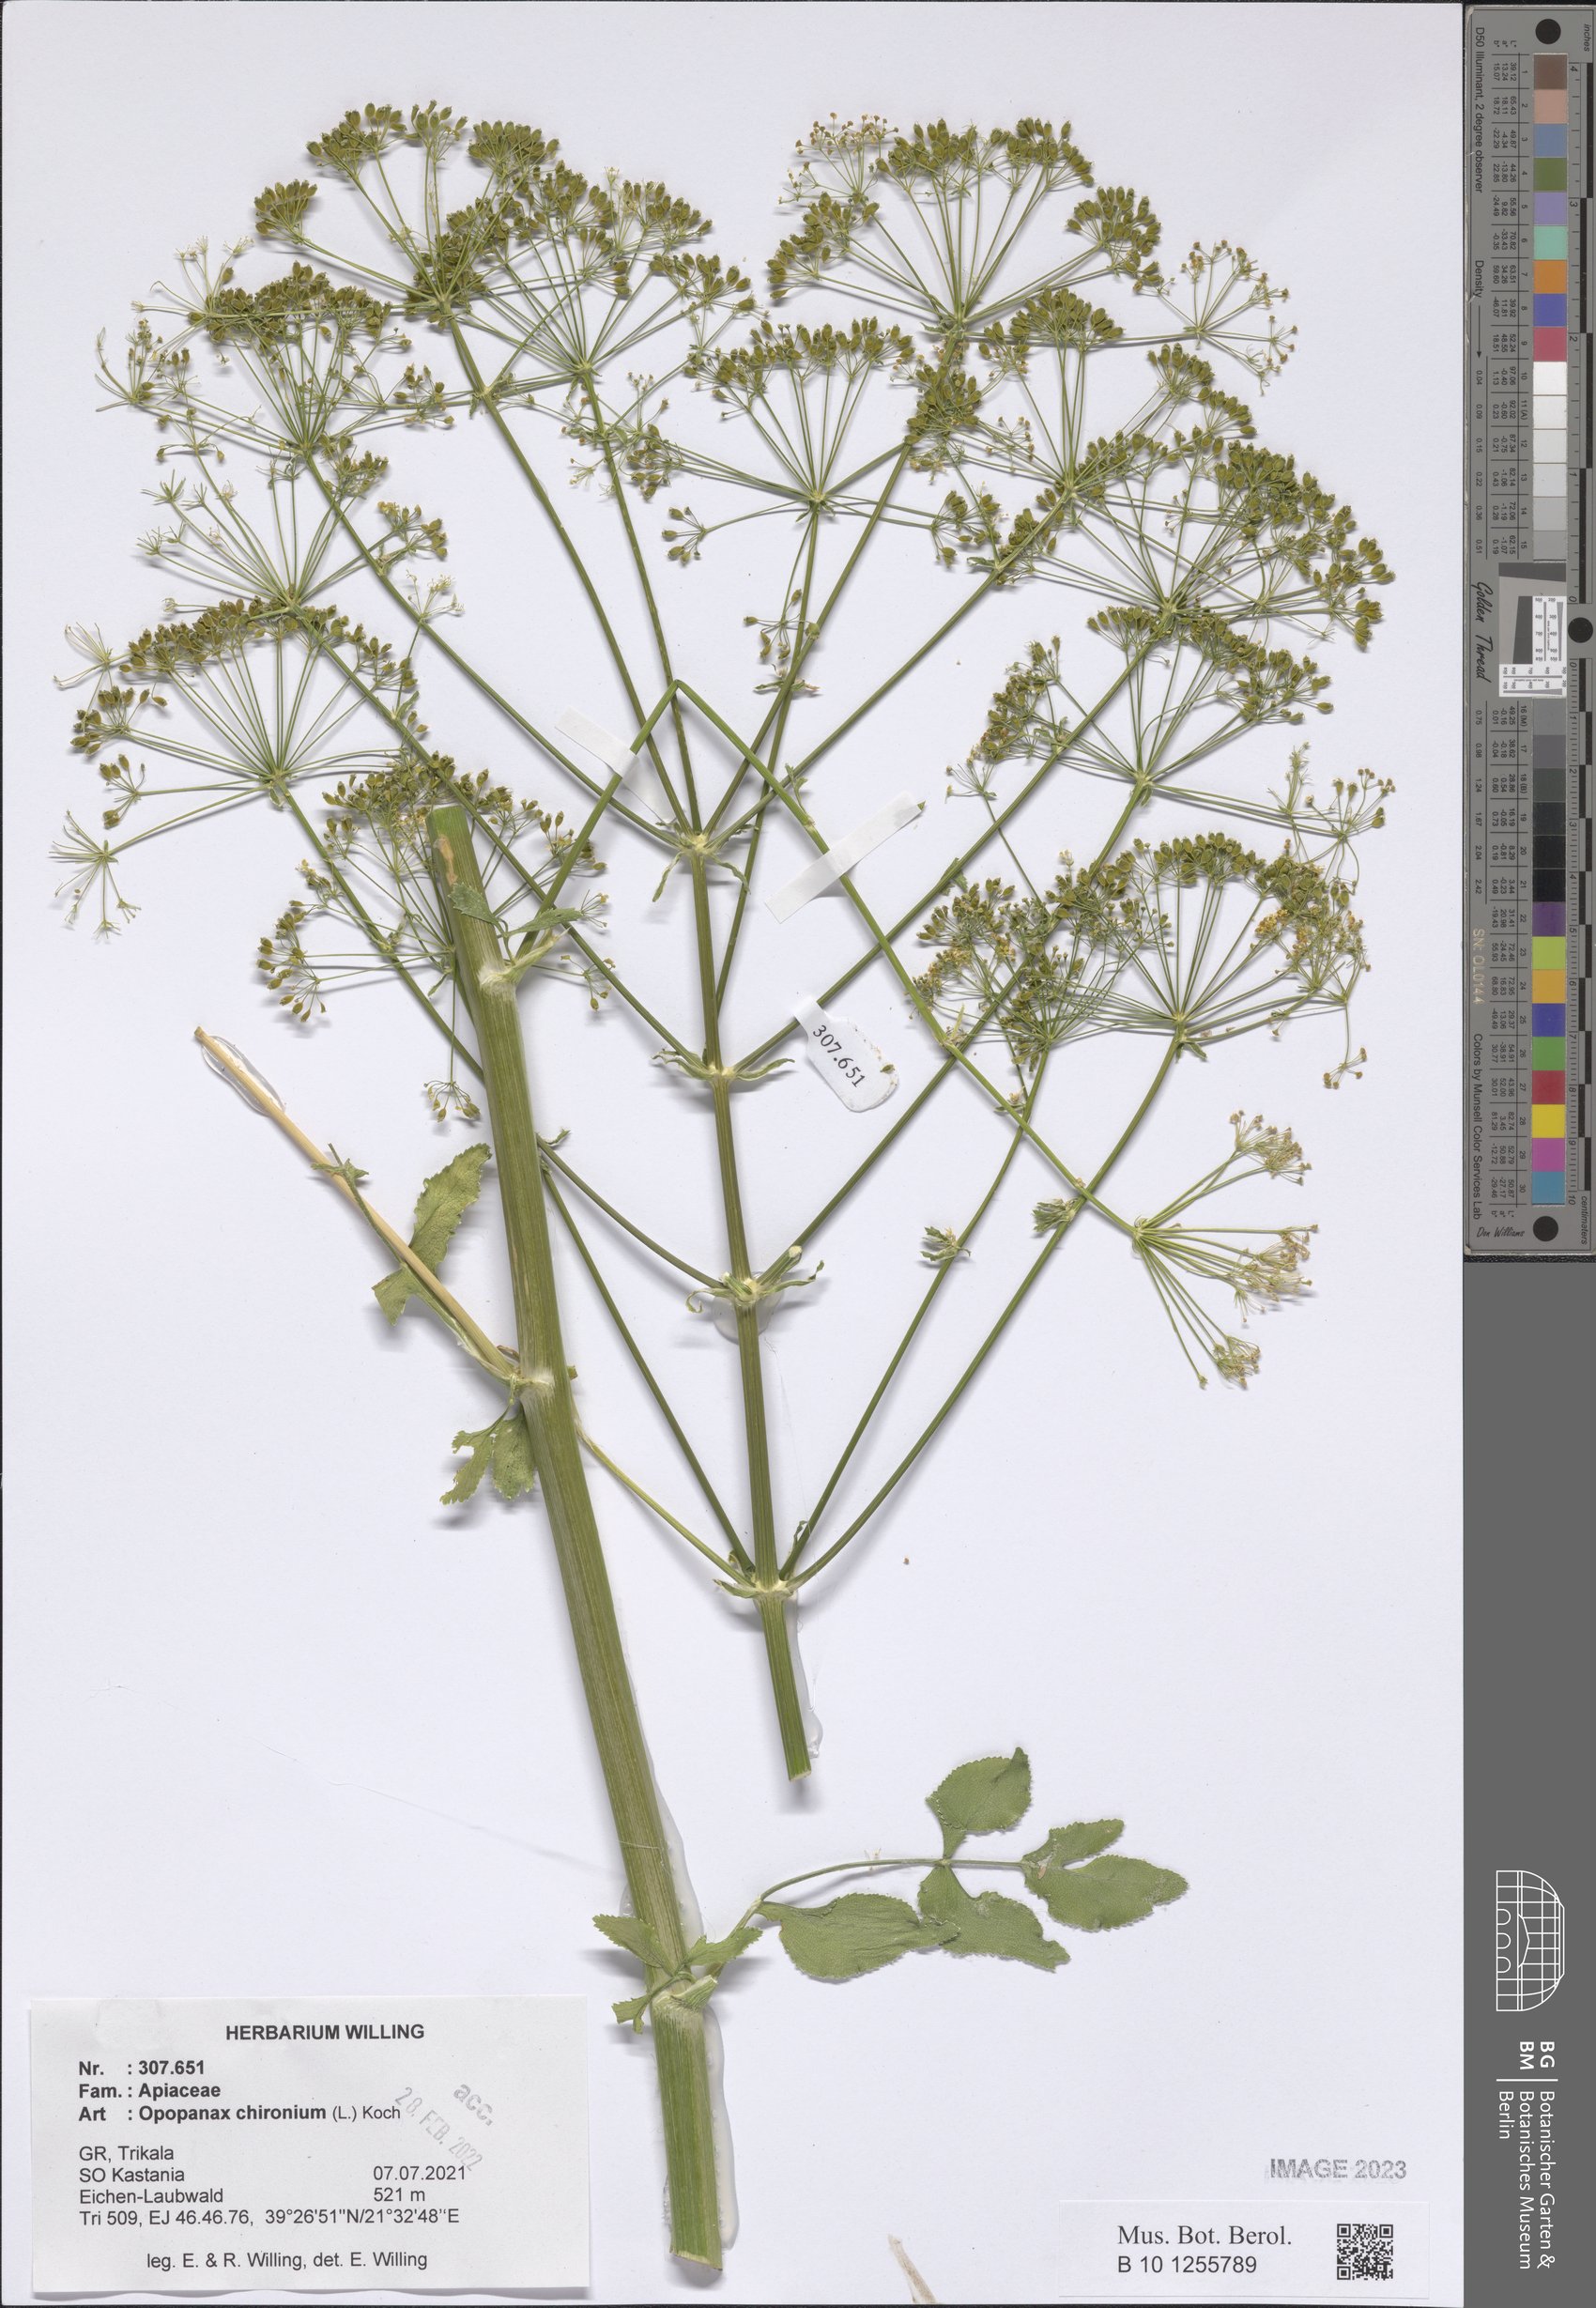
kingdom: Plantae
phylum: Tracheophyta
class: Magnoliopsida
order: Apiales
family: Apiaceae
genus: Opopanax
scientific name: Opopanax chironium
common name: Hercules-all-heal
